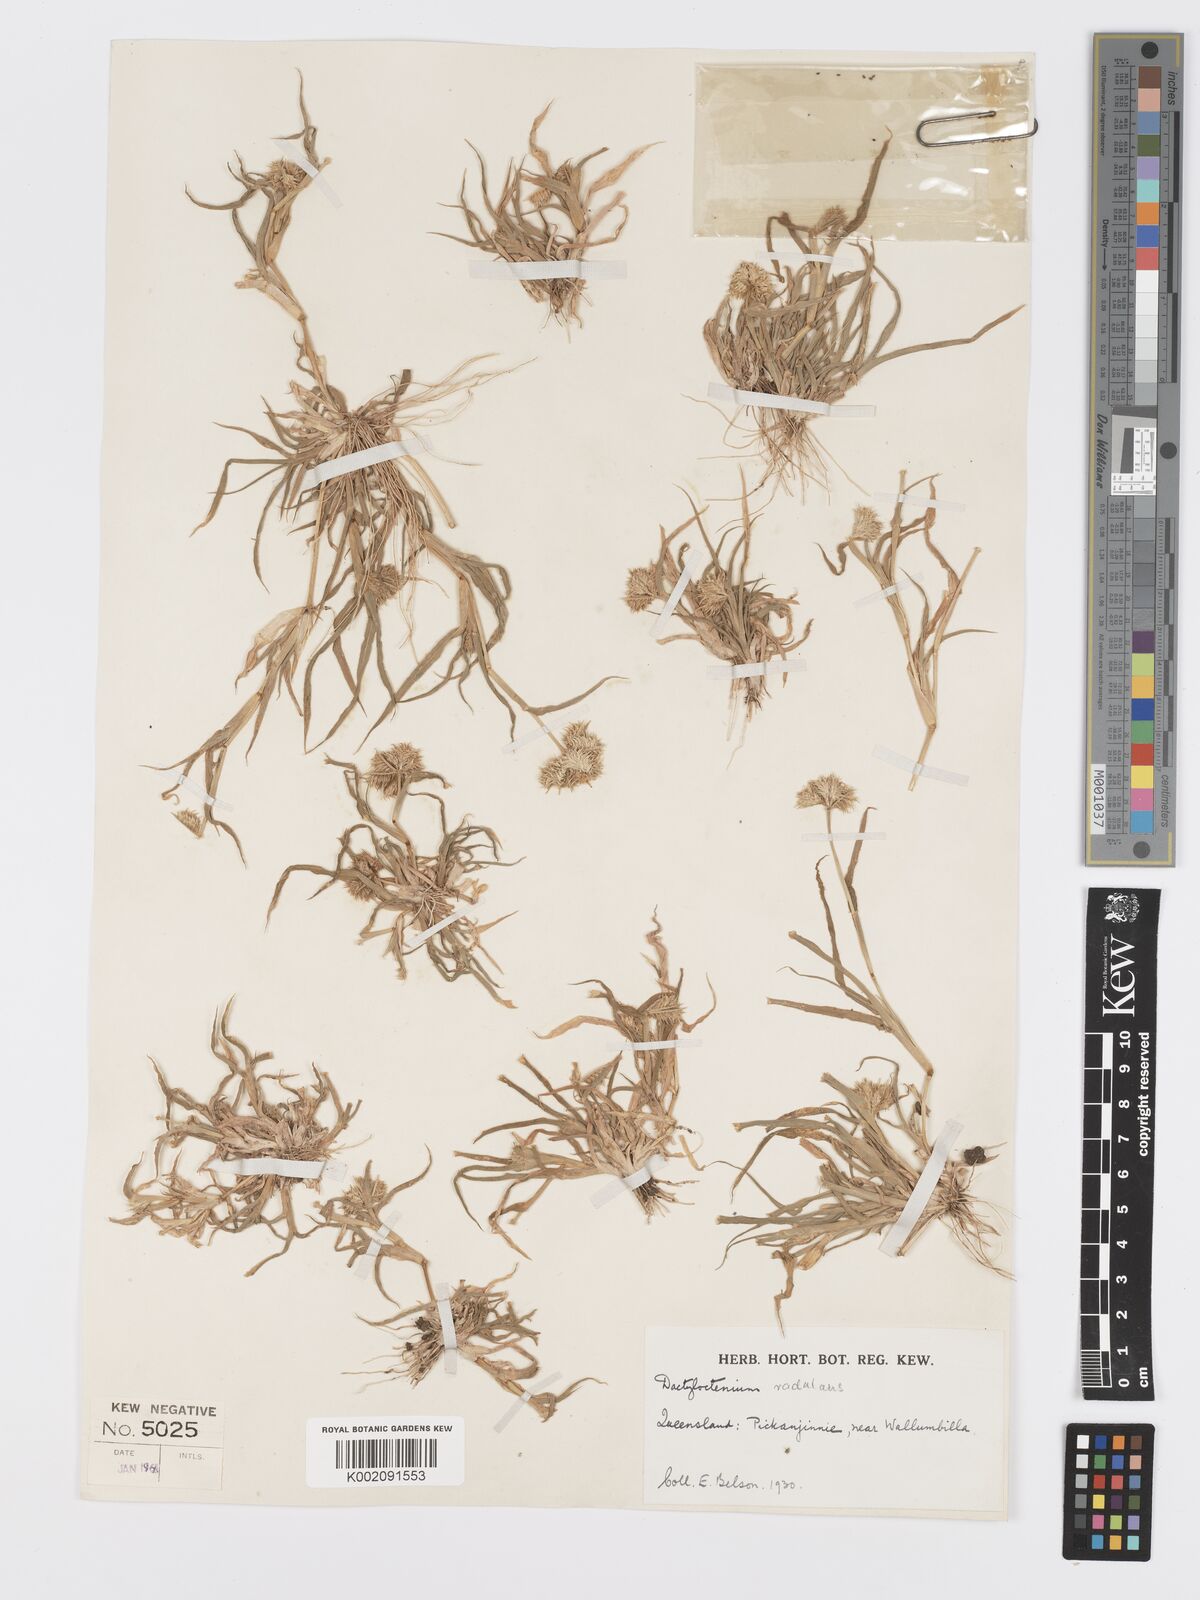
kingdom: Plantae
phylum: Tracheophyta
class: Liliopsida
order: Poales
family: Poaceae
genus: Dactyloctenium
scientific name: Dactyloctenium radulans
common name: Button-grass
